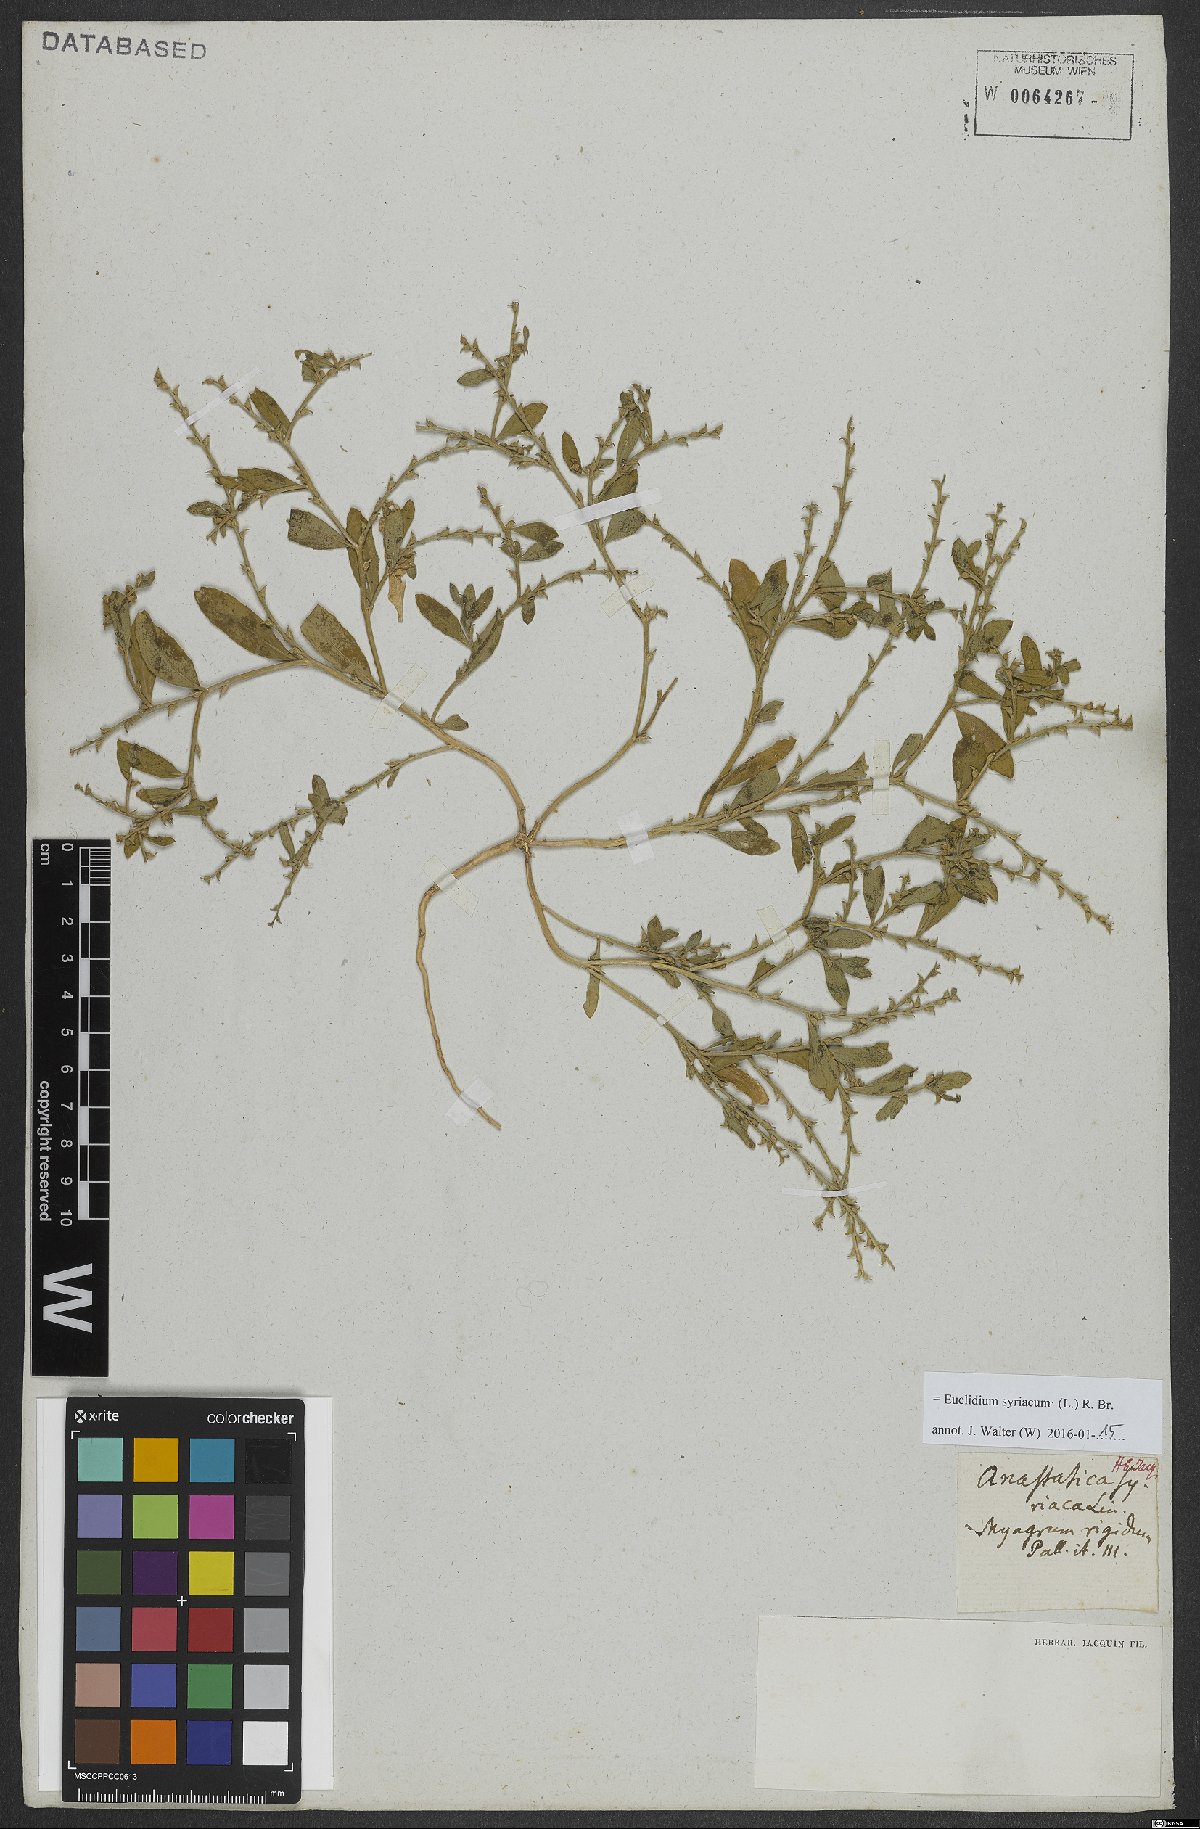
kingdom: Plantae
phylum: Tracheophyta
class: Magnoliopsida
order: Brassicales
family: Brassicaceae
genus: Euclidium
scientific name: Euclidium syriacum
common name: Syrian mustard
